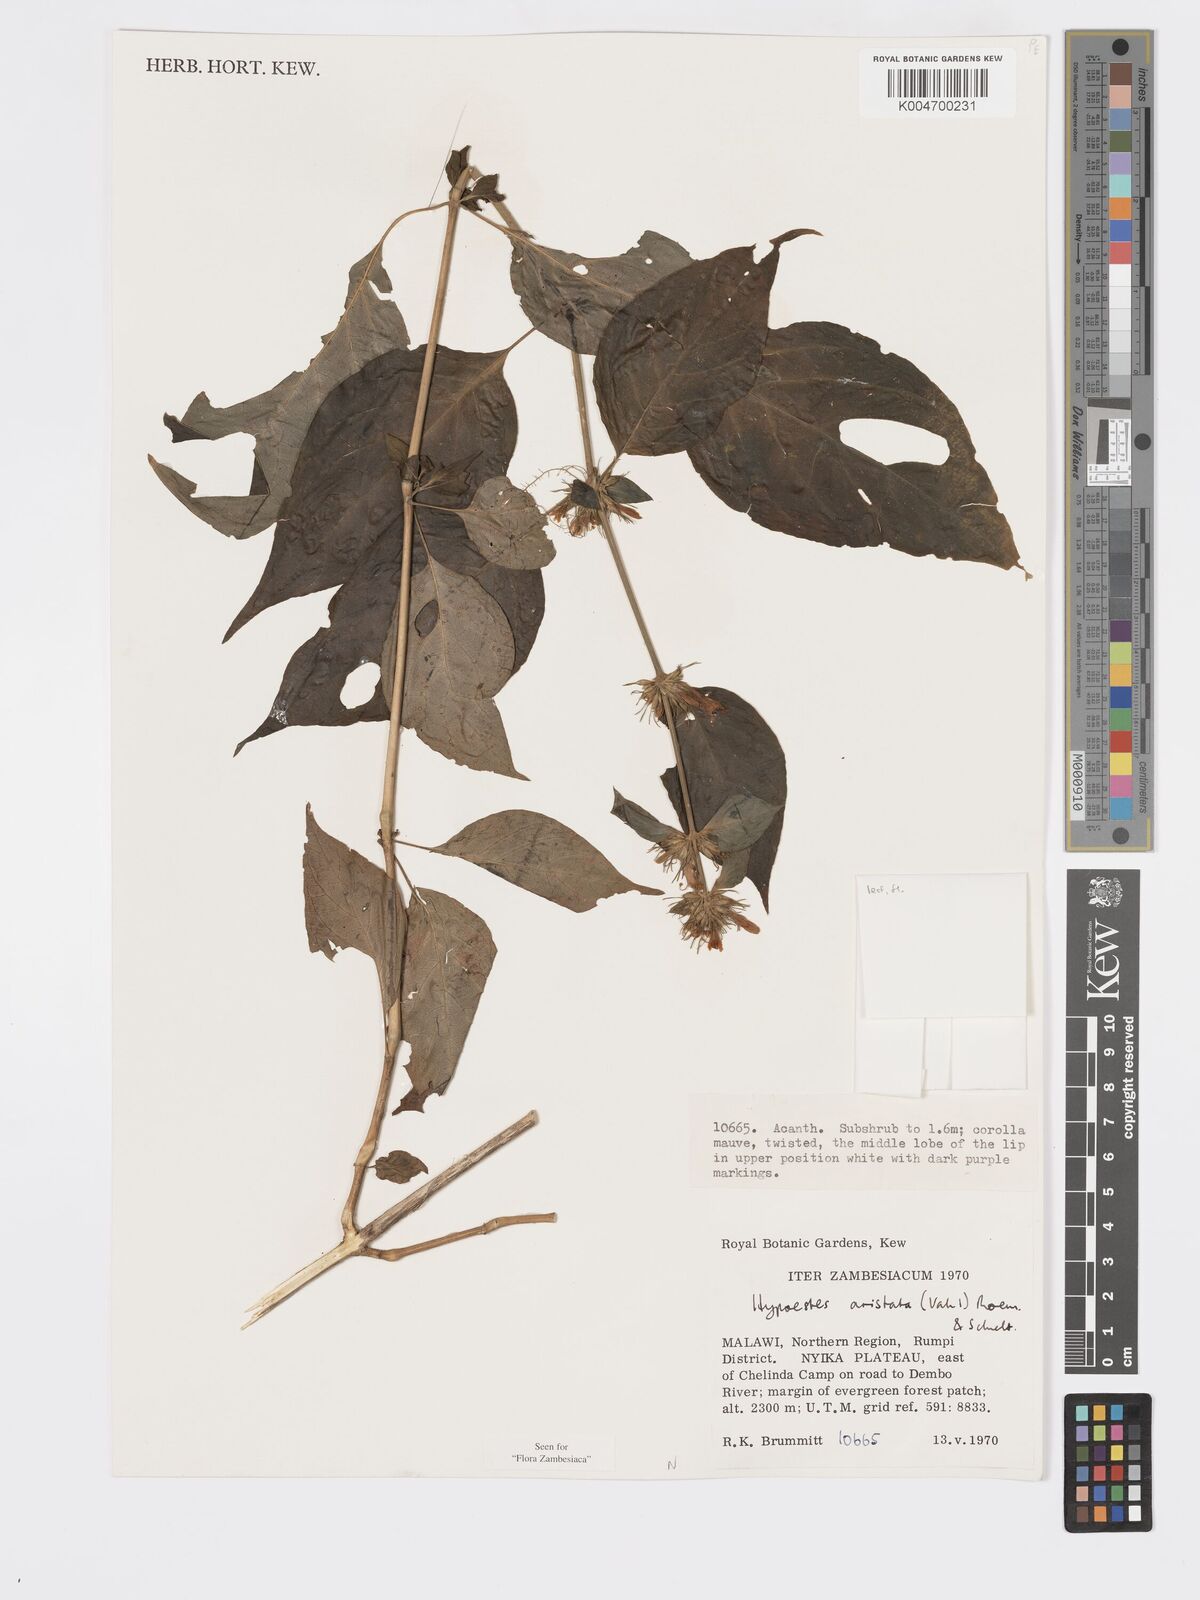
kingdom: Plantae
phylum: Tracheophyta
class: Magnoliopsida
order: Lamiales
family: Acanthaceae
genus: Hypoestes
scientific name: Hypoestes aristata
